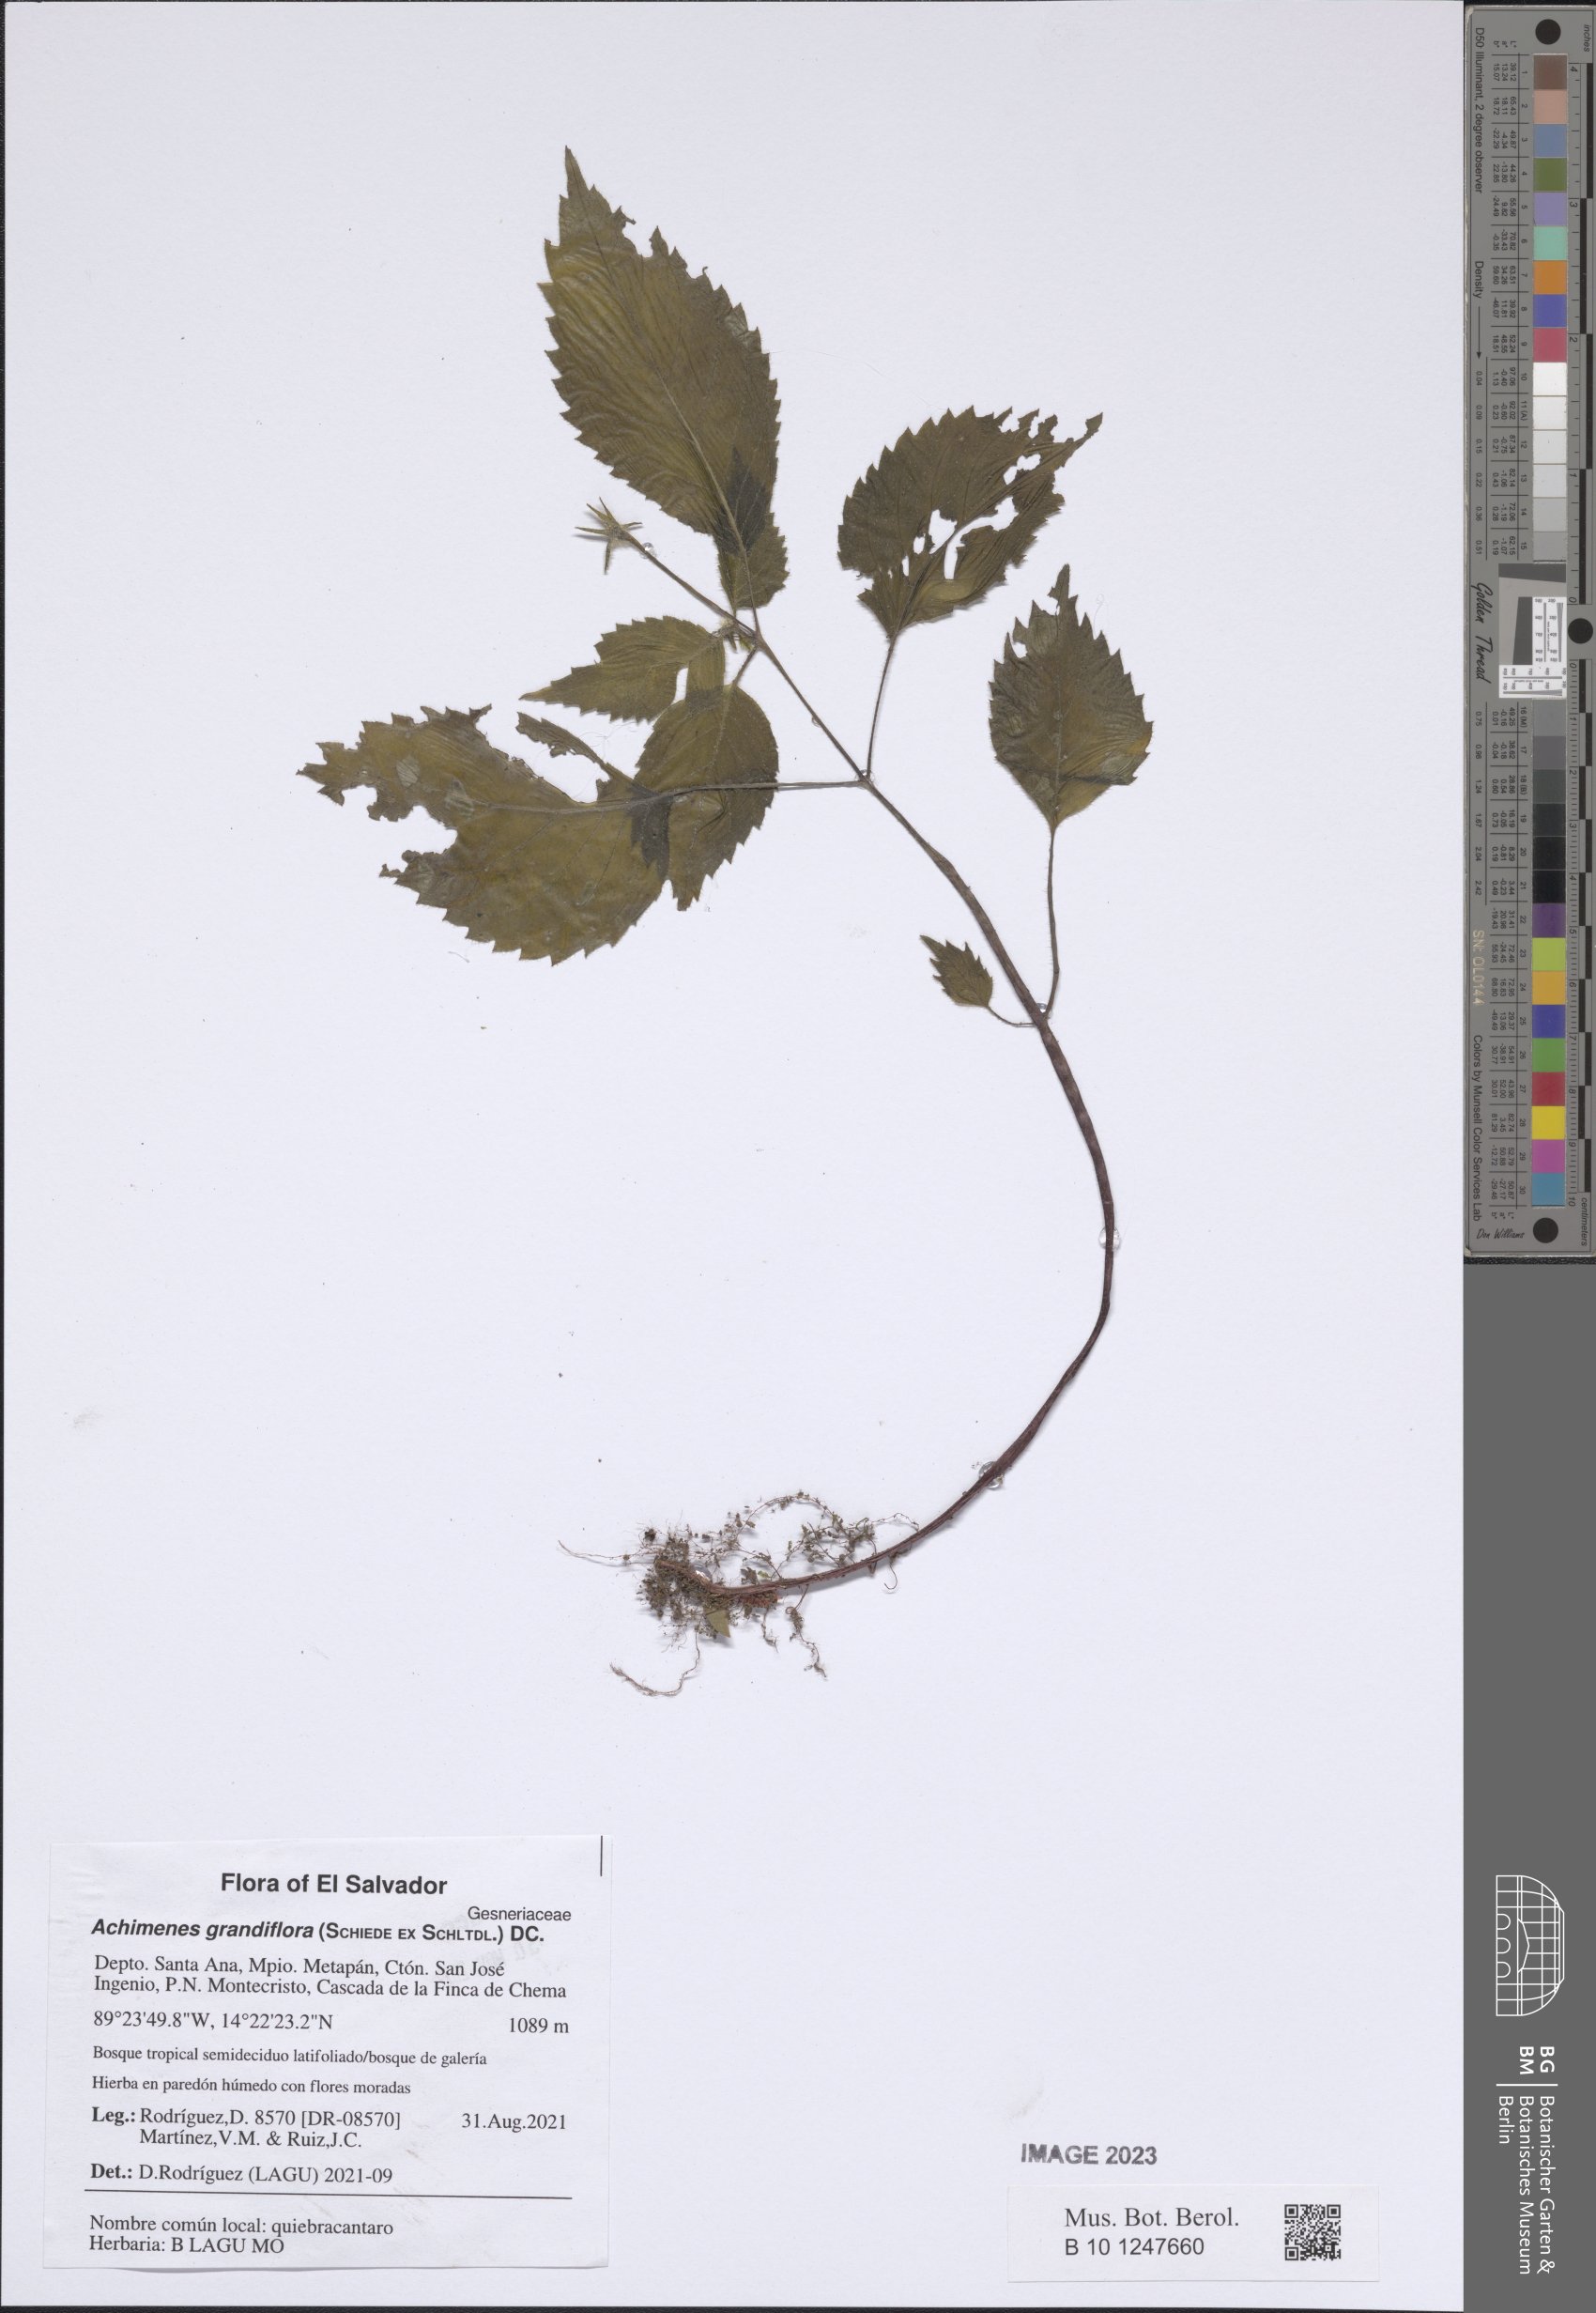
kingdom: Plantae
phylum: Tracheophyta
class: Magnoliopsida
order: Lamiales
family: Gesneriaceae
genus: Achimenes
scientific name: Achimenes grandiflora
